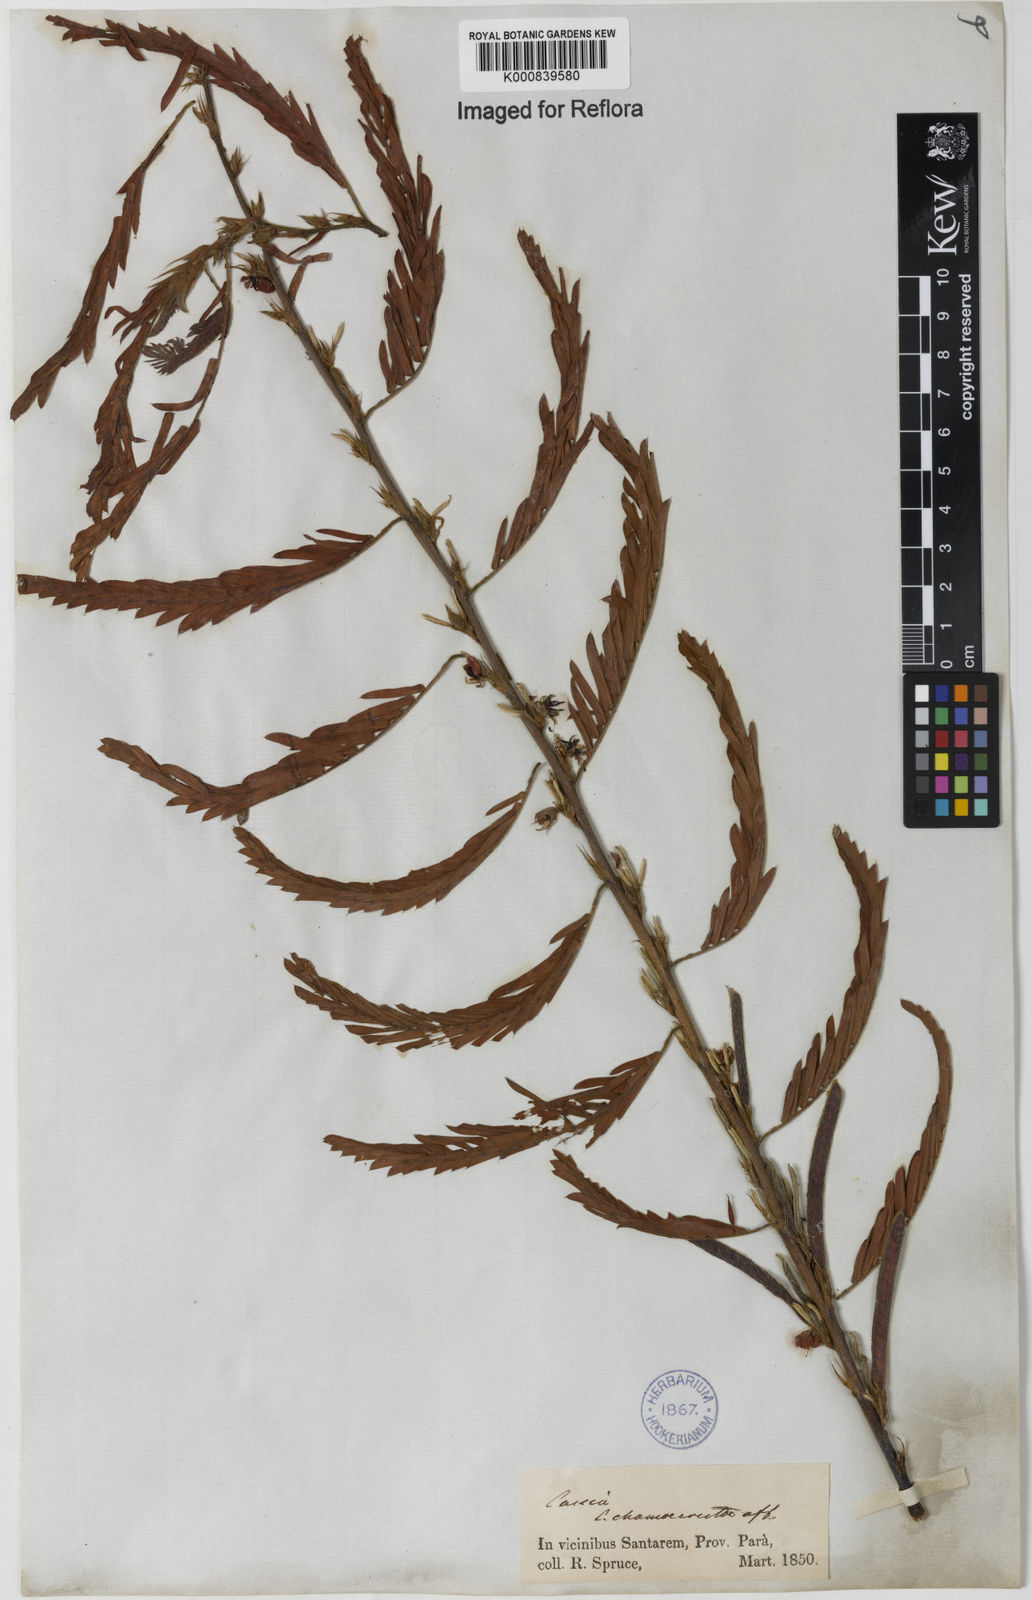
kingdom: Plantae
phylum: Tracheophyta
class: Magnoliopsida
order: Fabales
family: Fabaceae
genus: Chamaecrista
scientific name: Chamaecrista nictitans
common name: Sensitive cassia
